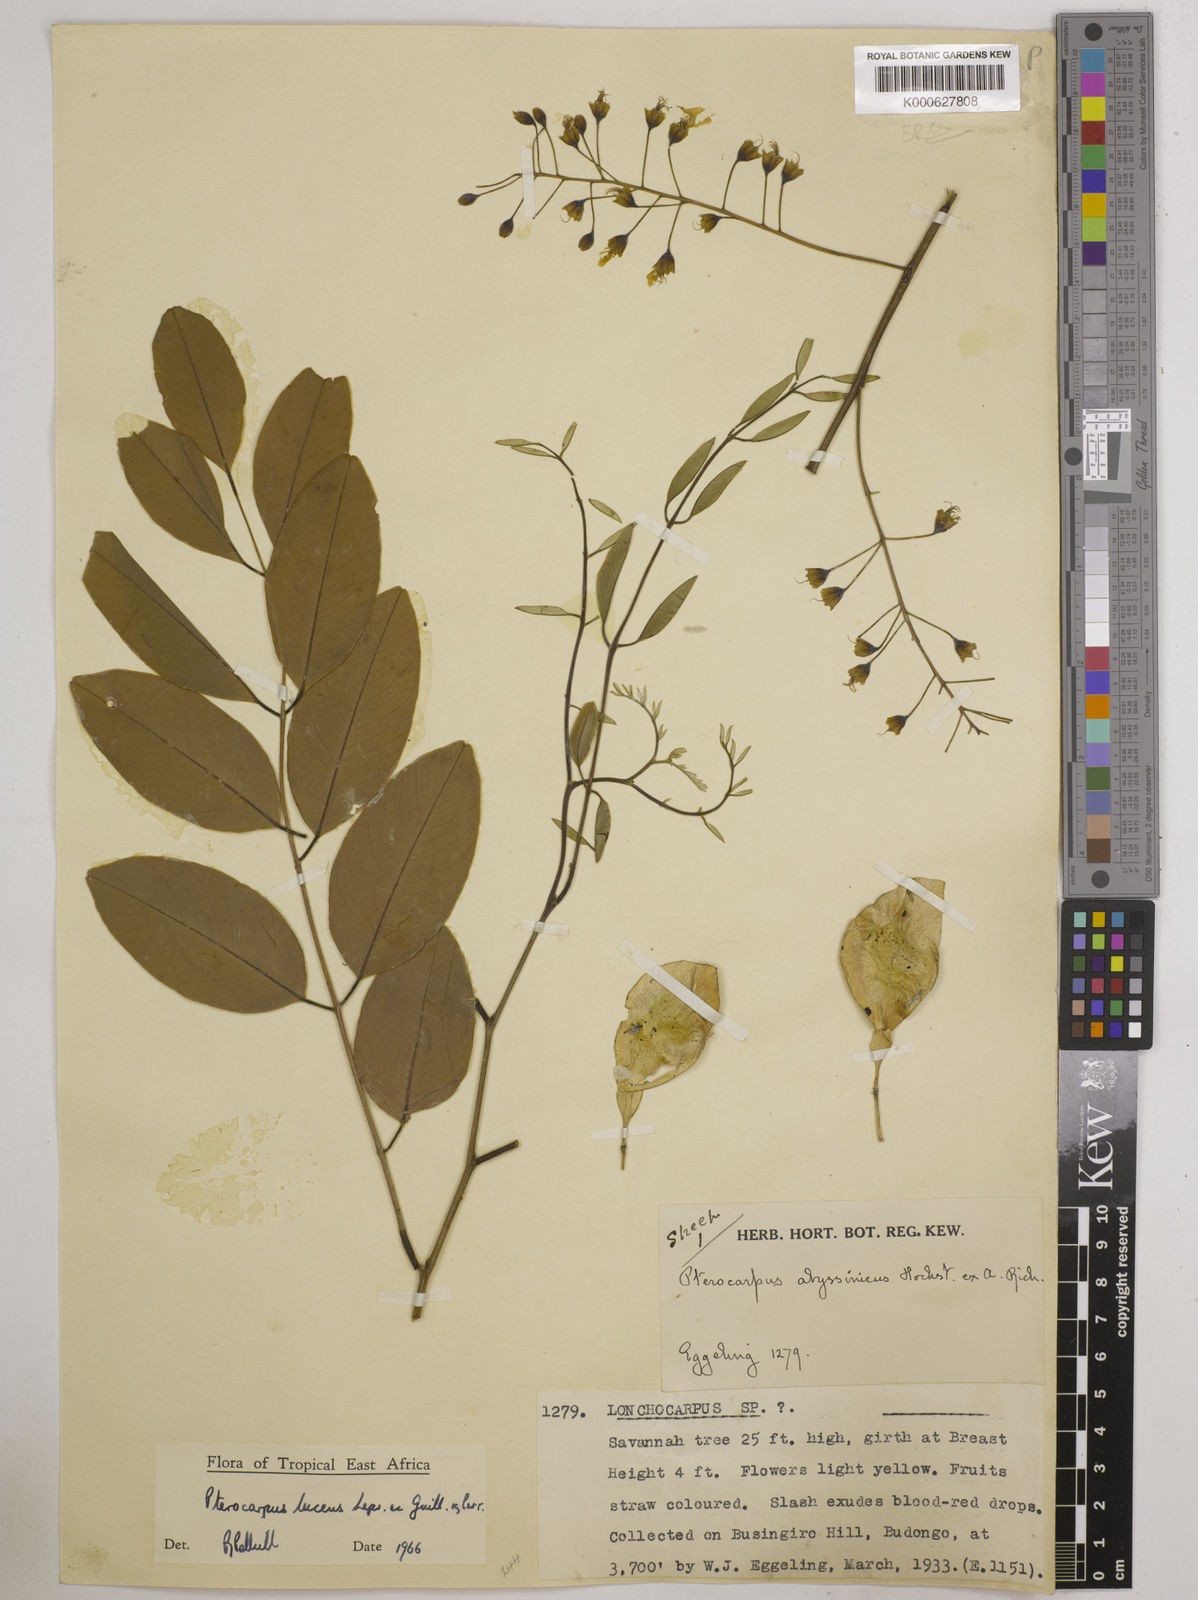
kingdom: Plantae
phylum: Tracheophyta
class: Magnoliopsida
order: Fabales
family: Fabaceae
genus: Pterocarpus
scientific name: Pterocarpus lucens
